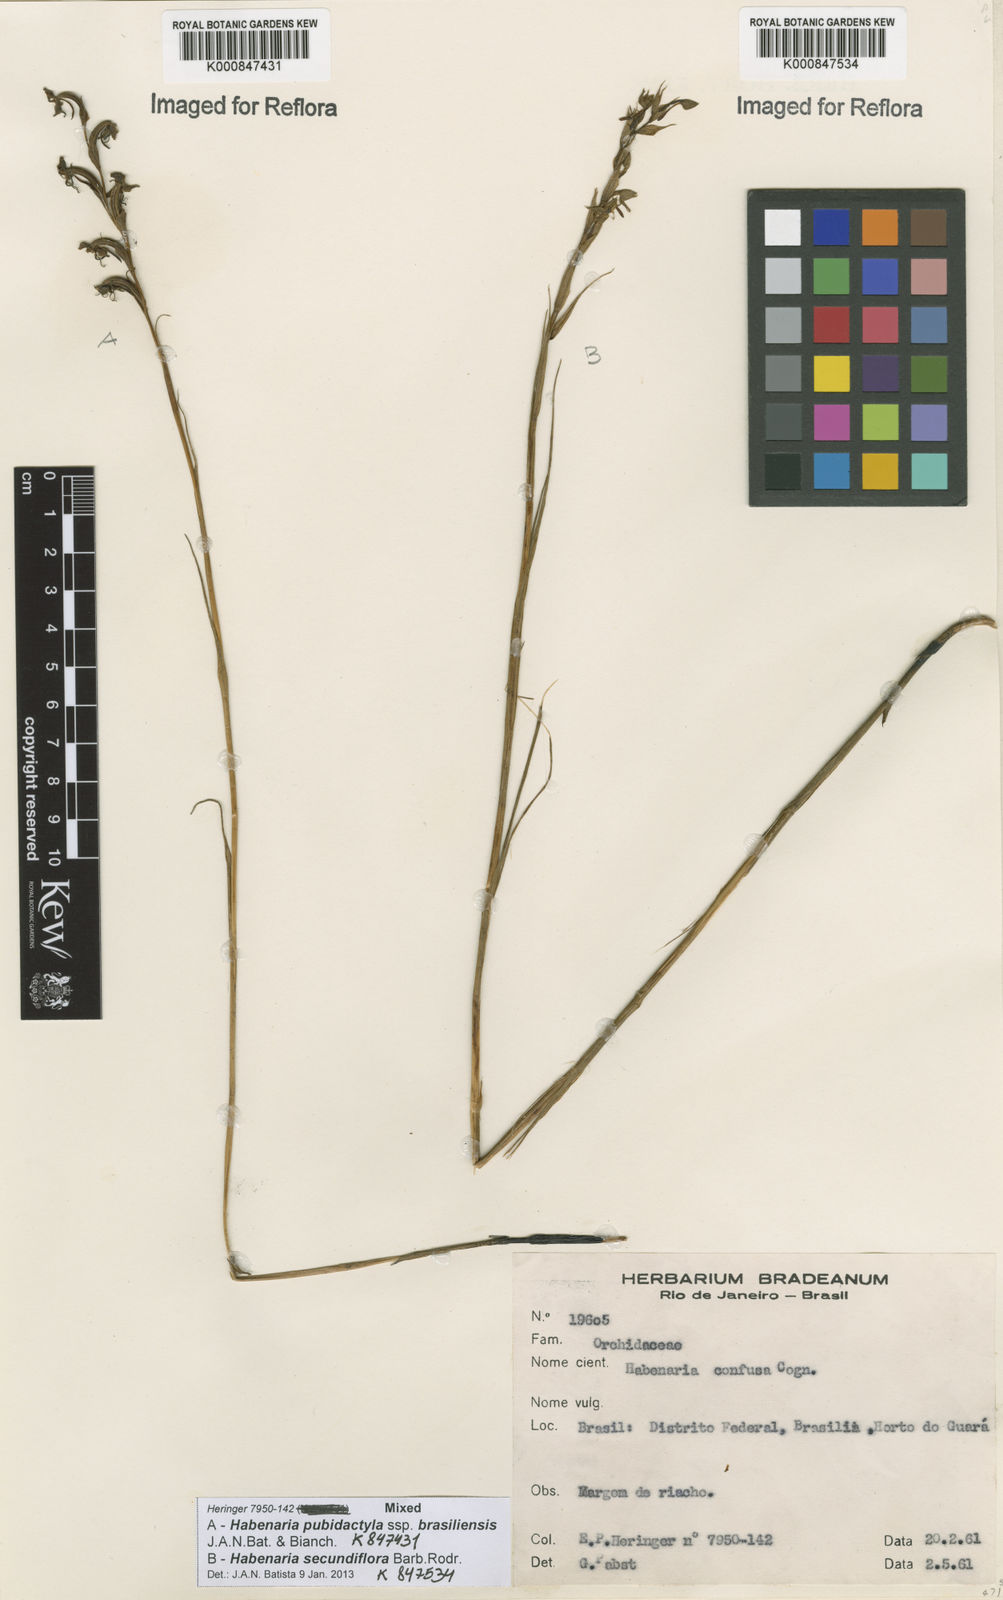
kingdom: Plantae
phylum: Tracheophyta
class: Liliopsida
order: Asparagales
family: Orchidaceae
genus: Habenaria
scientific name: Habenaria secundiflora
